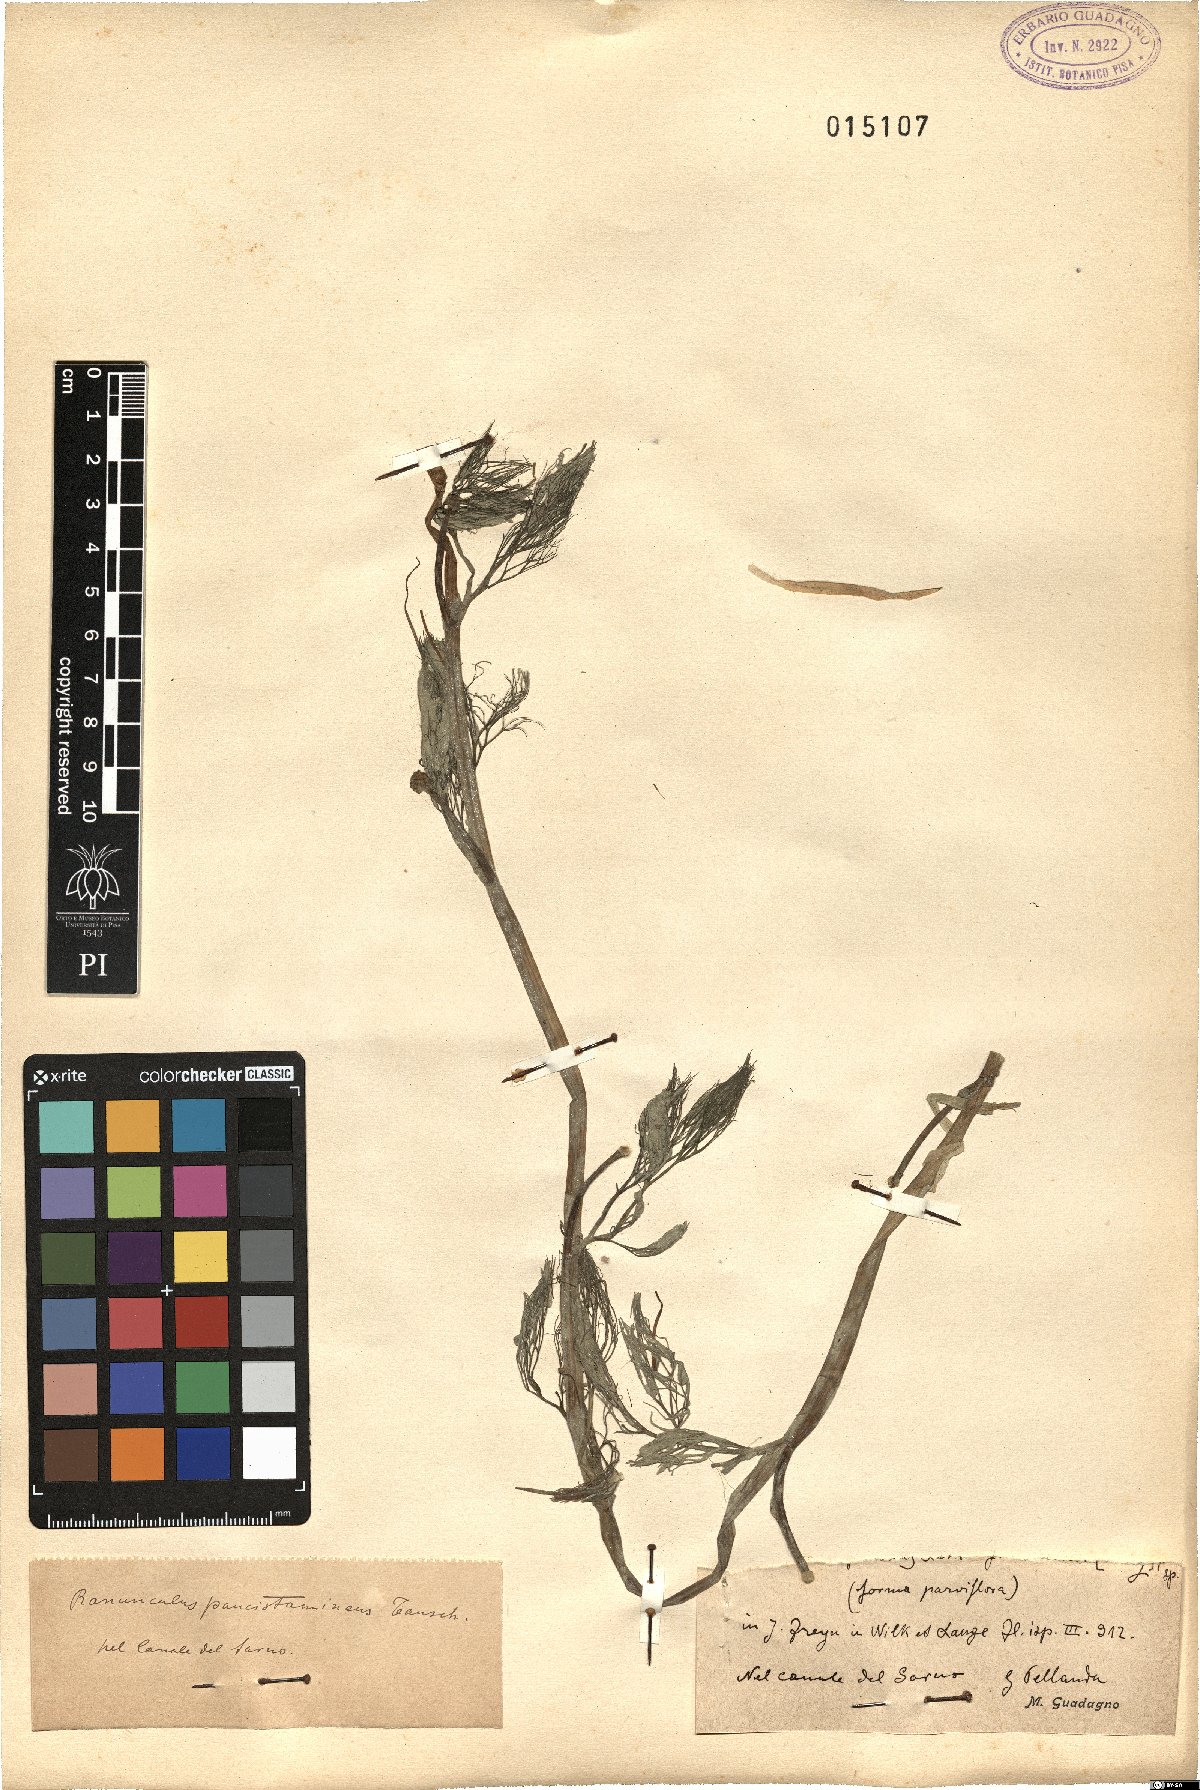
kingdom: Plantae
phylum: Tracheophyta
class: Magnoliopsida
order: Ranunculales
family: Ranunculaceae
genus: Ranunculus
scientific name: Ranunculus
